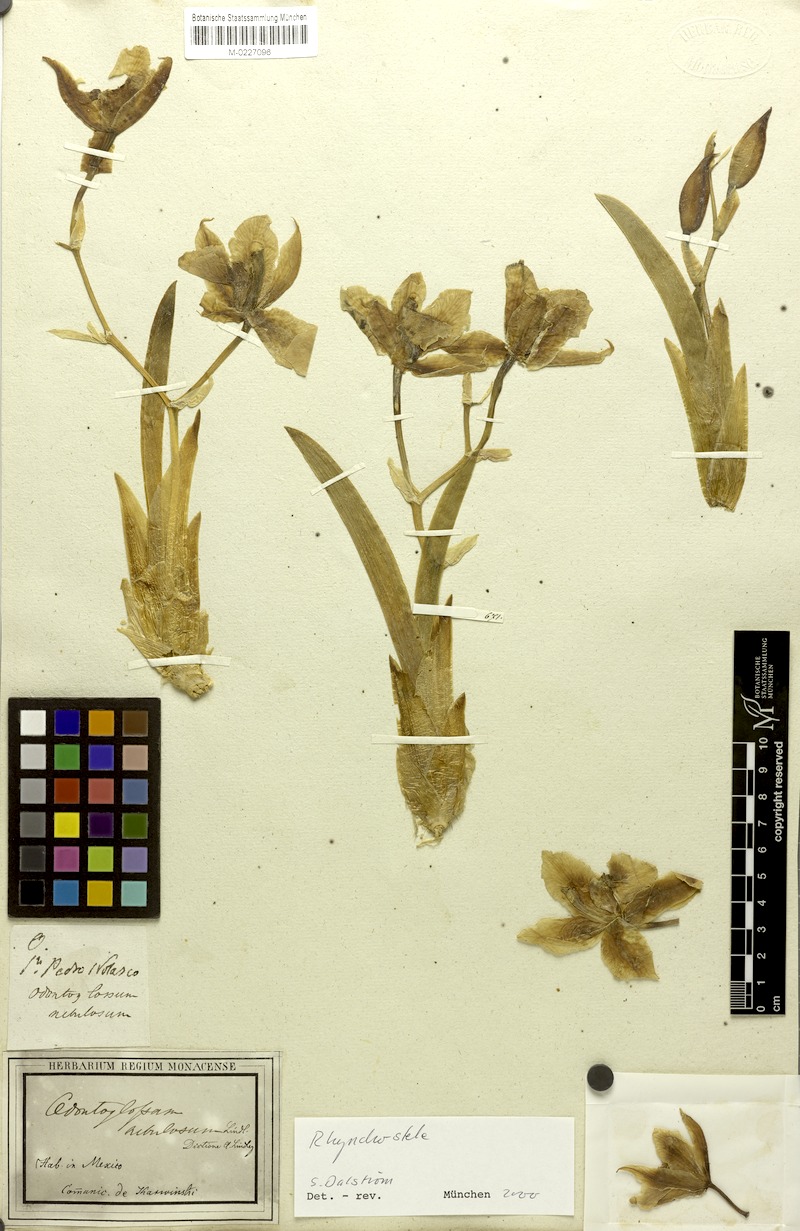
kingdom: Plantae
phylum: Tracheophyta
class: Liliopsida
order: Asparagales
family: Orchidaceae
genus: Rhynchostele
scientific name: Rhynchostele aptera
